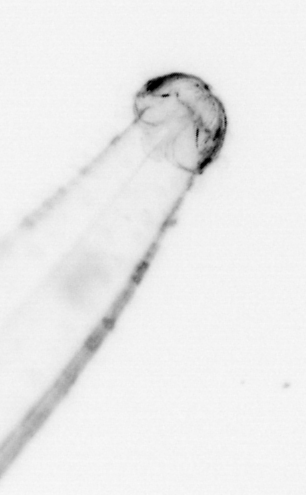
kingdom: Animalia
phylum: Chaetognatha
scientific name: Chaetognatha
